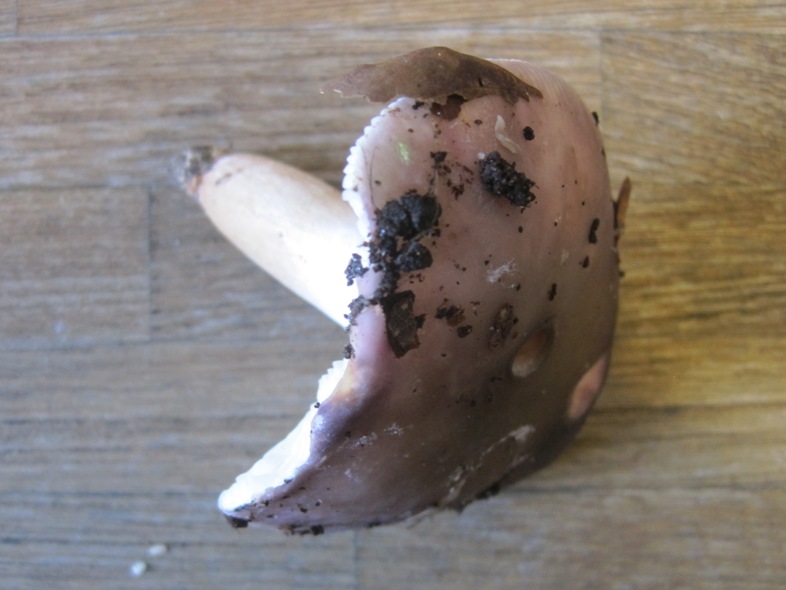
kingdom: Fungi
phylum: Basidiomycota
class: Agaricomycetes
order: Russulales
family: Russulaceae
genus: Russula
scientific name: Russula ionochlora
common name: violetgrøn skørhat
